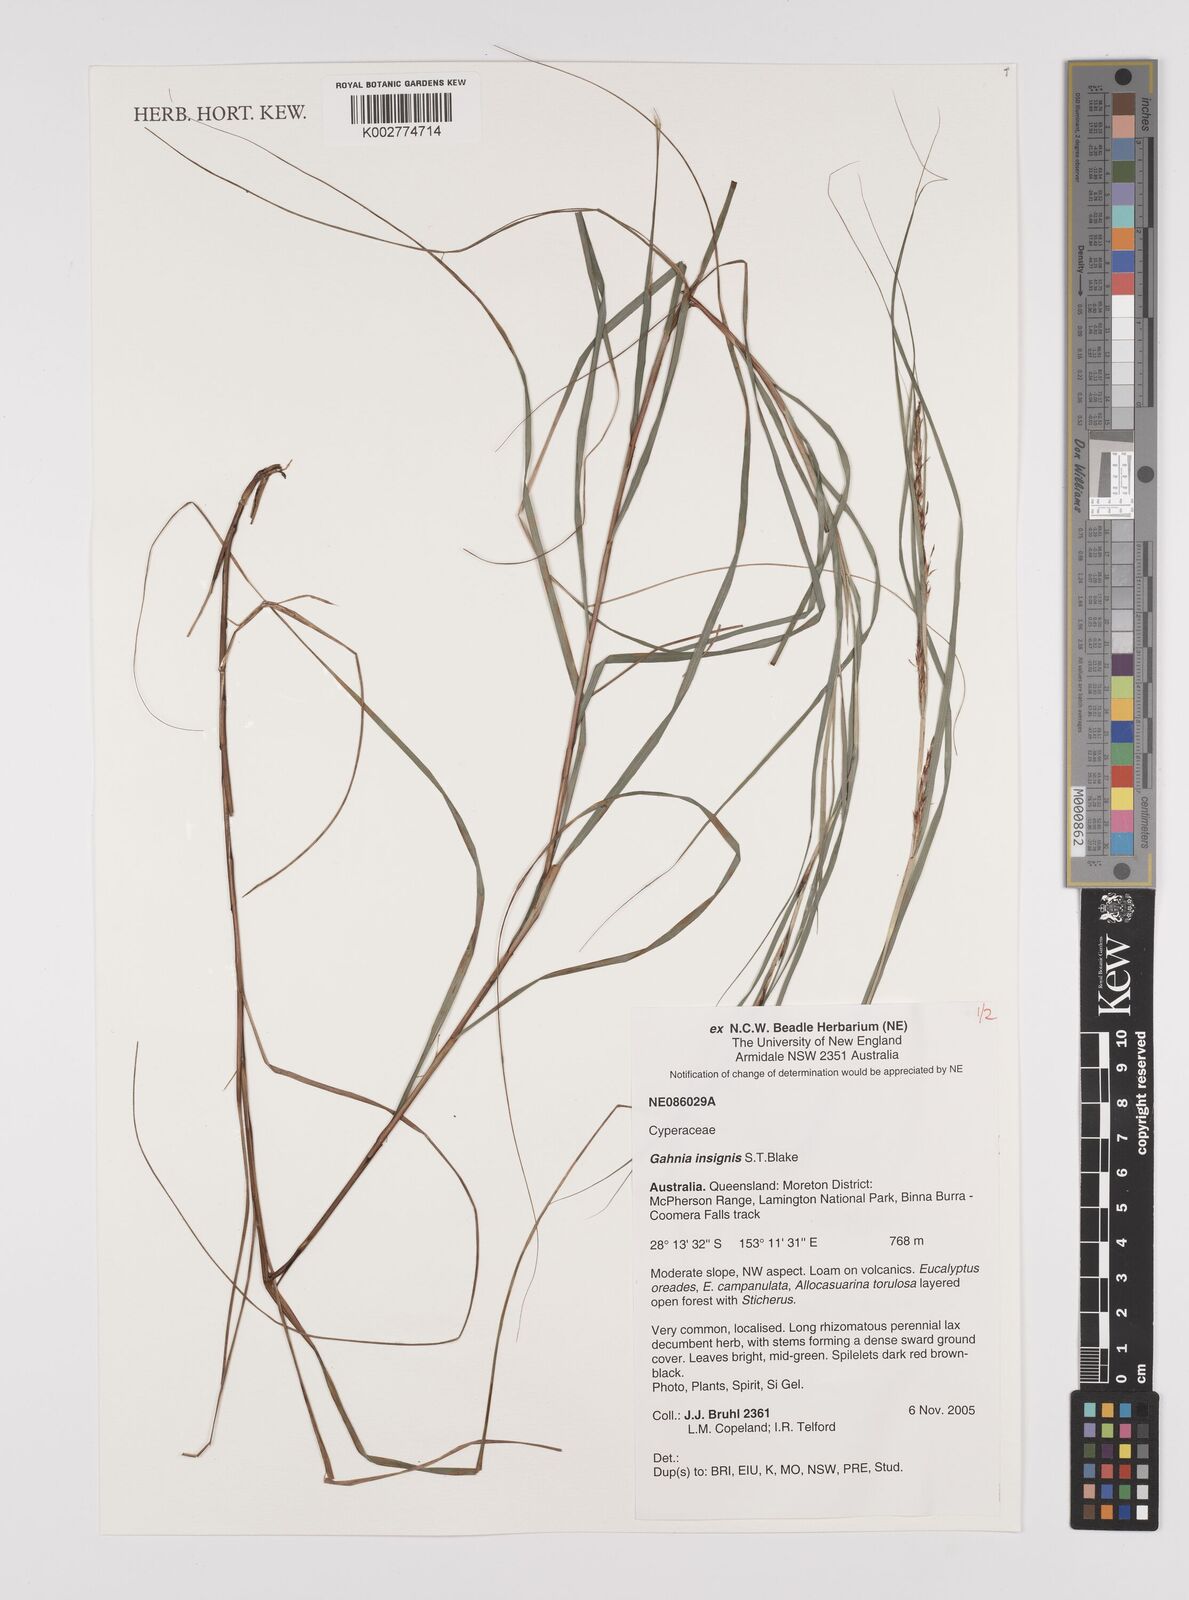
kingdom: Plantae
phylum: Tracheophyta
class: Liliopsida
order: Poales
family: Cyperaceae
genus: Gahnia
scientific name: Gahnia insignis
